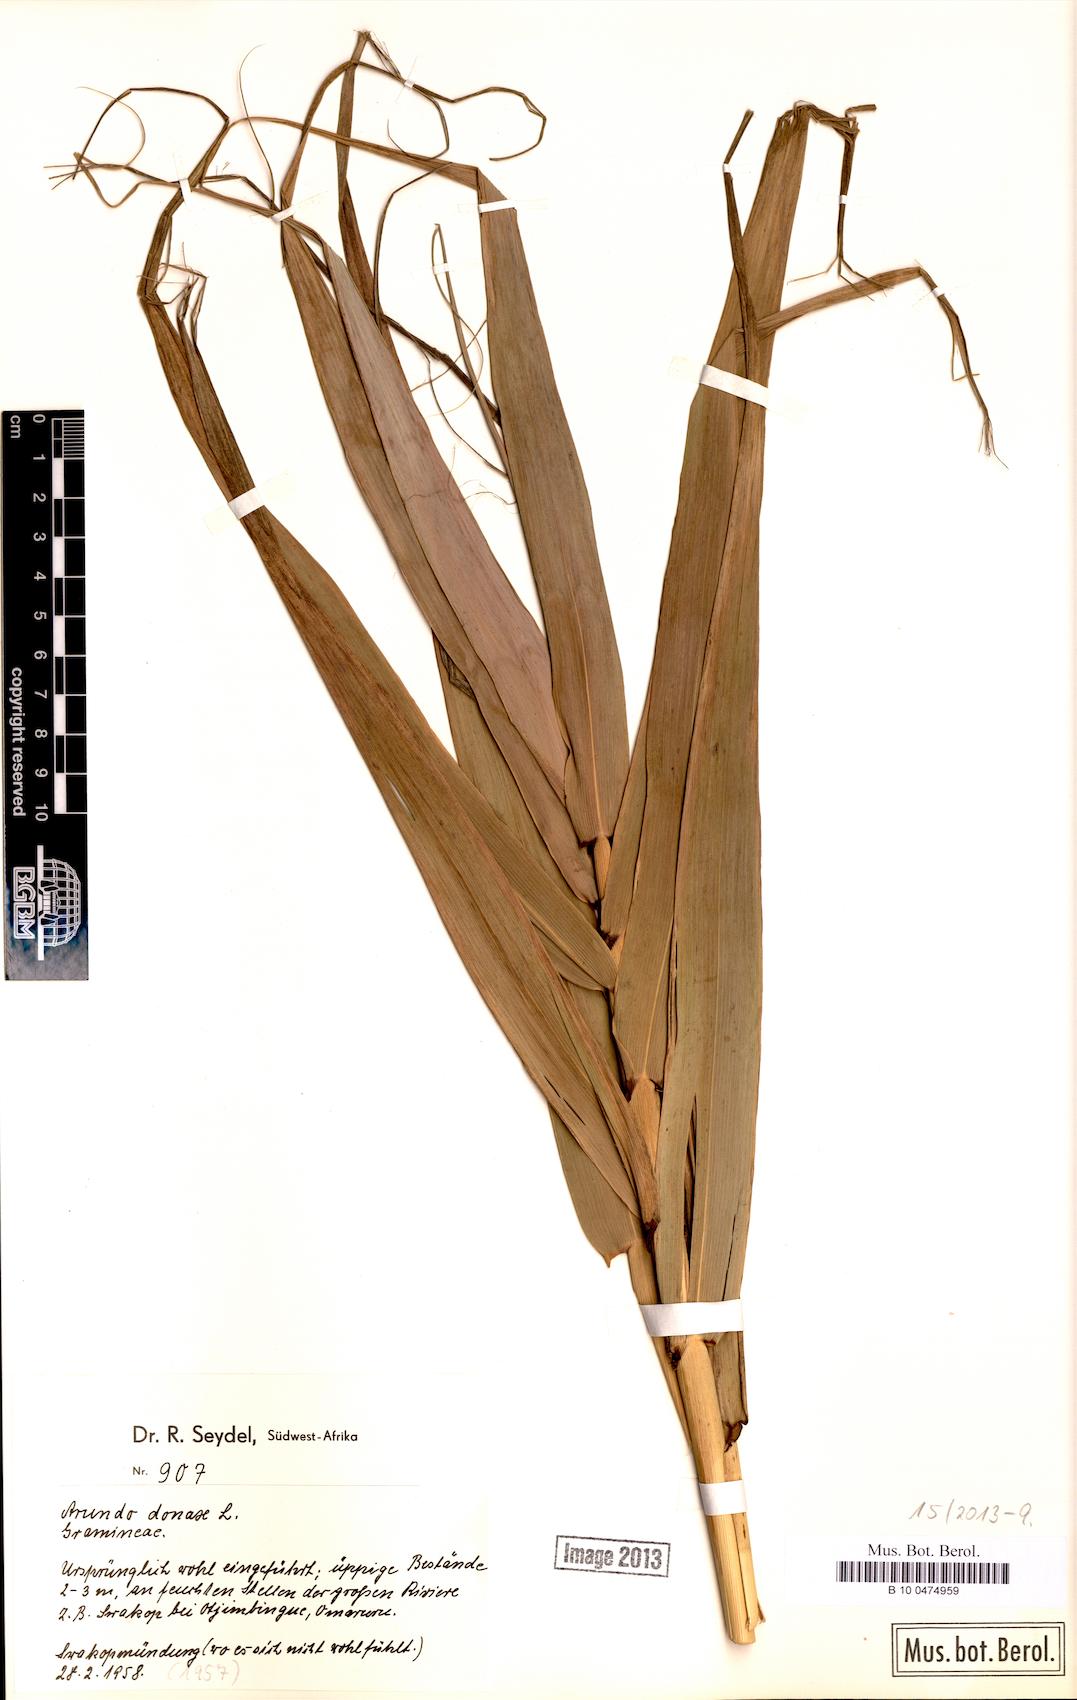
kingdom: Plantae
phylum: Tracheophyta
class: Liliopsida
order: Poales
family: Poaceae
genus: Arundo
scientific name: Arundo donax
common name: Giant reed
